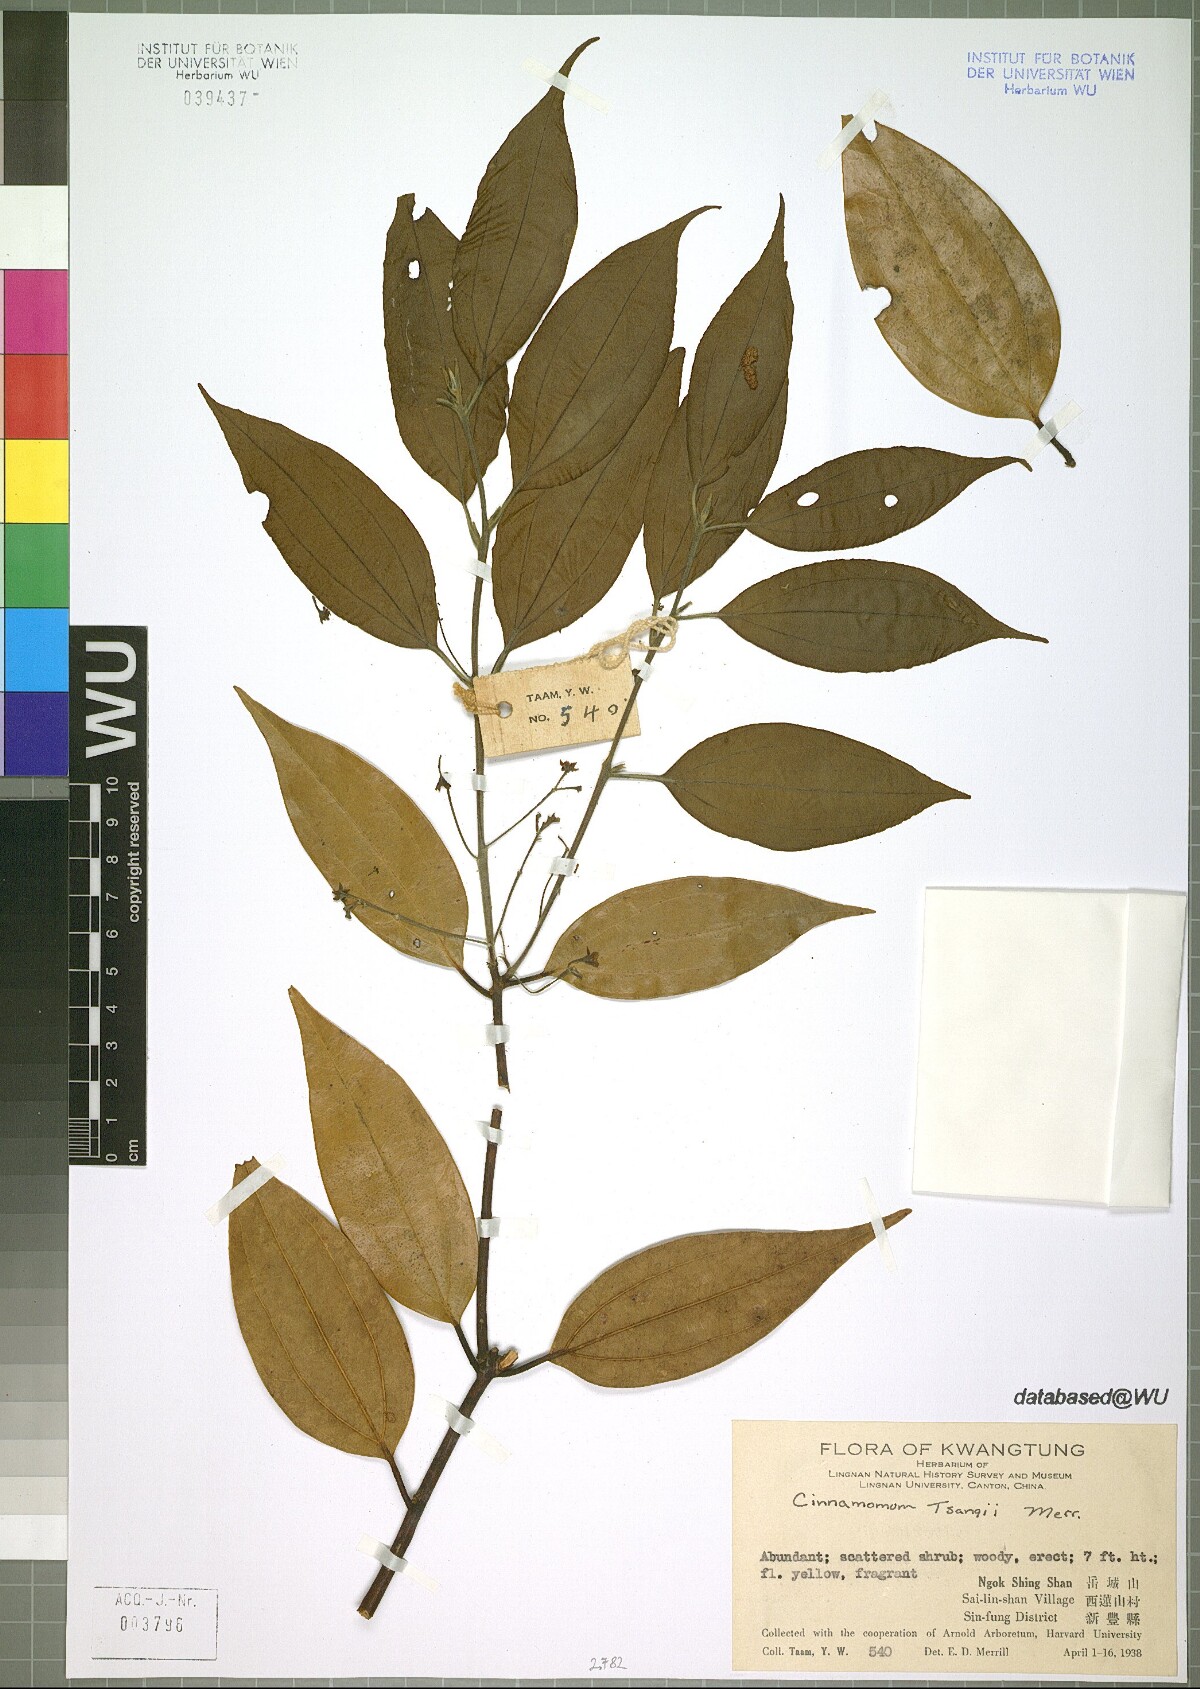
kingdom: Plantae
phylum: Tracheophyta
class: Magnoliopsida
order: Laurales
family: Lauraceae
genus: Cinnamomum
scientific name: Cinnamomum tsangii
